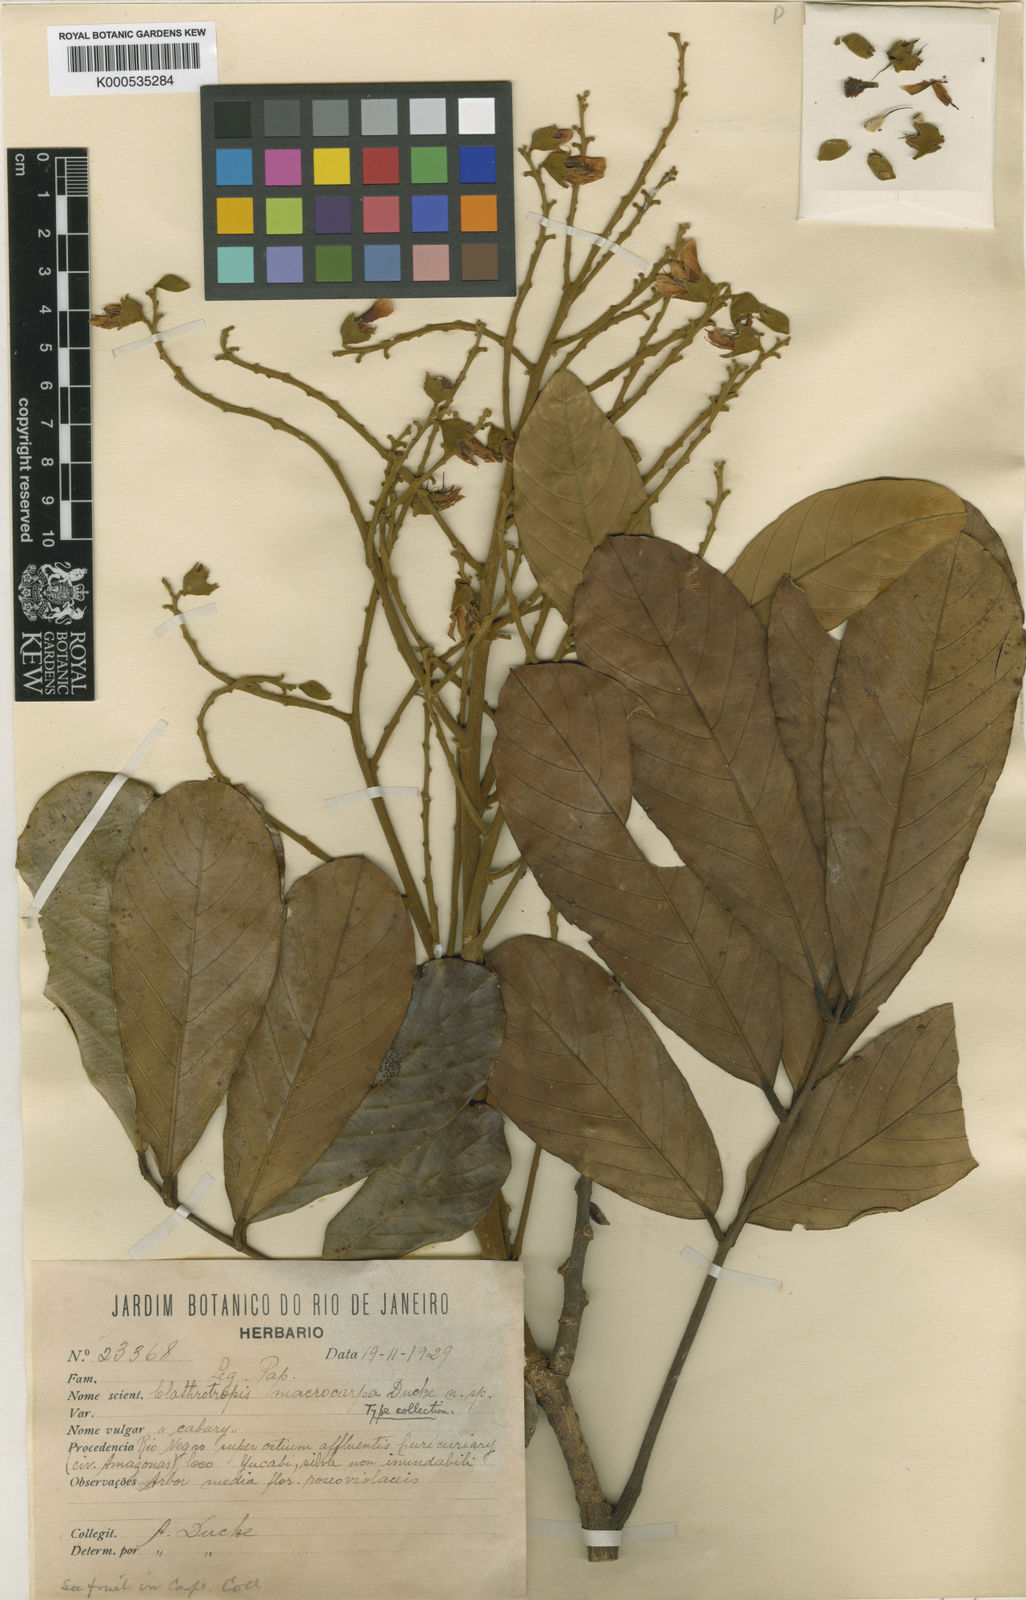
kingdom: Plantae
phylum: Tracheophyta
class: Magnoliopsida
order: Fabales
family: Fabaceae
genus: Clathrotropis
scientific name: Clathrotropis macrocarpa
